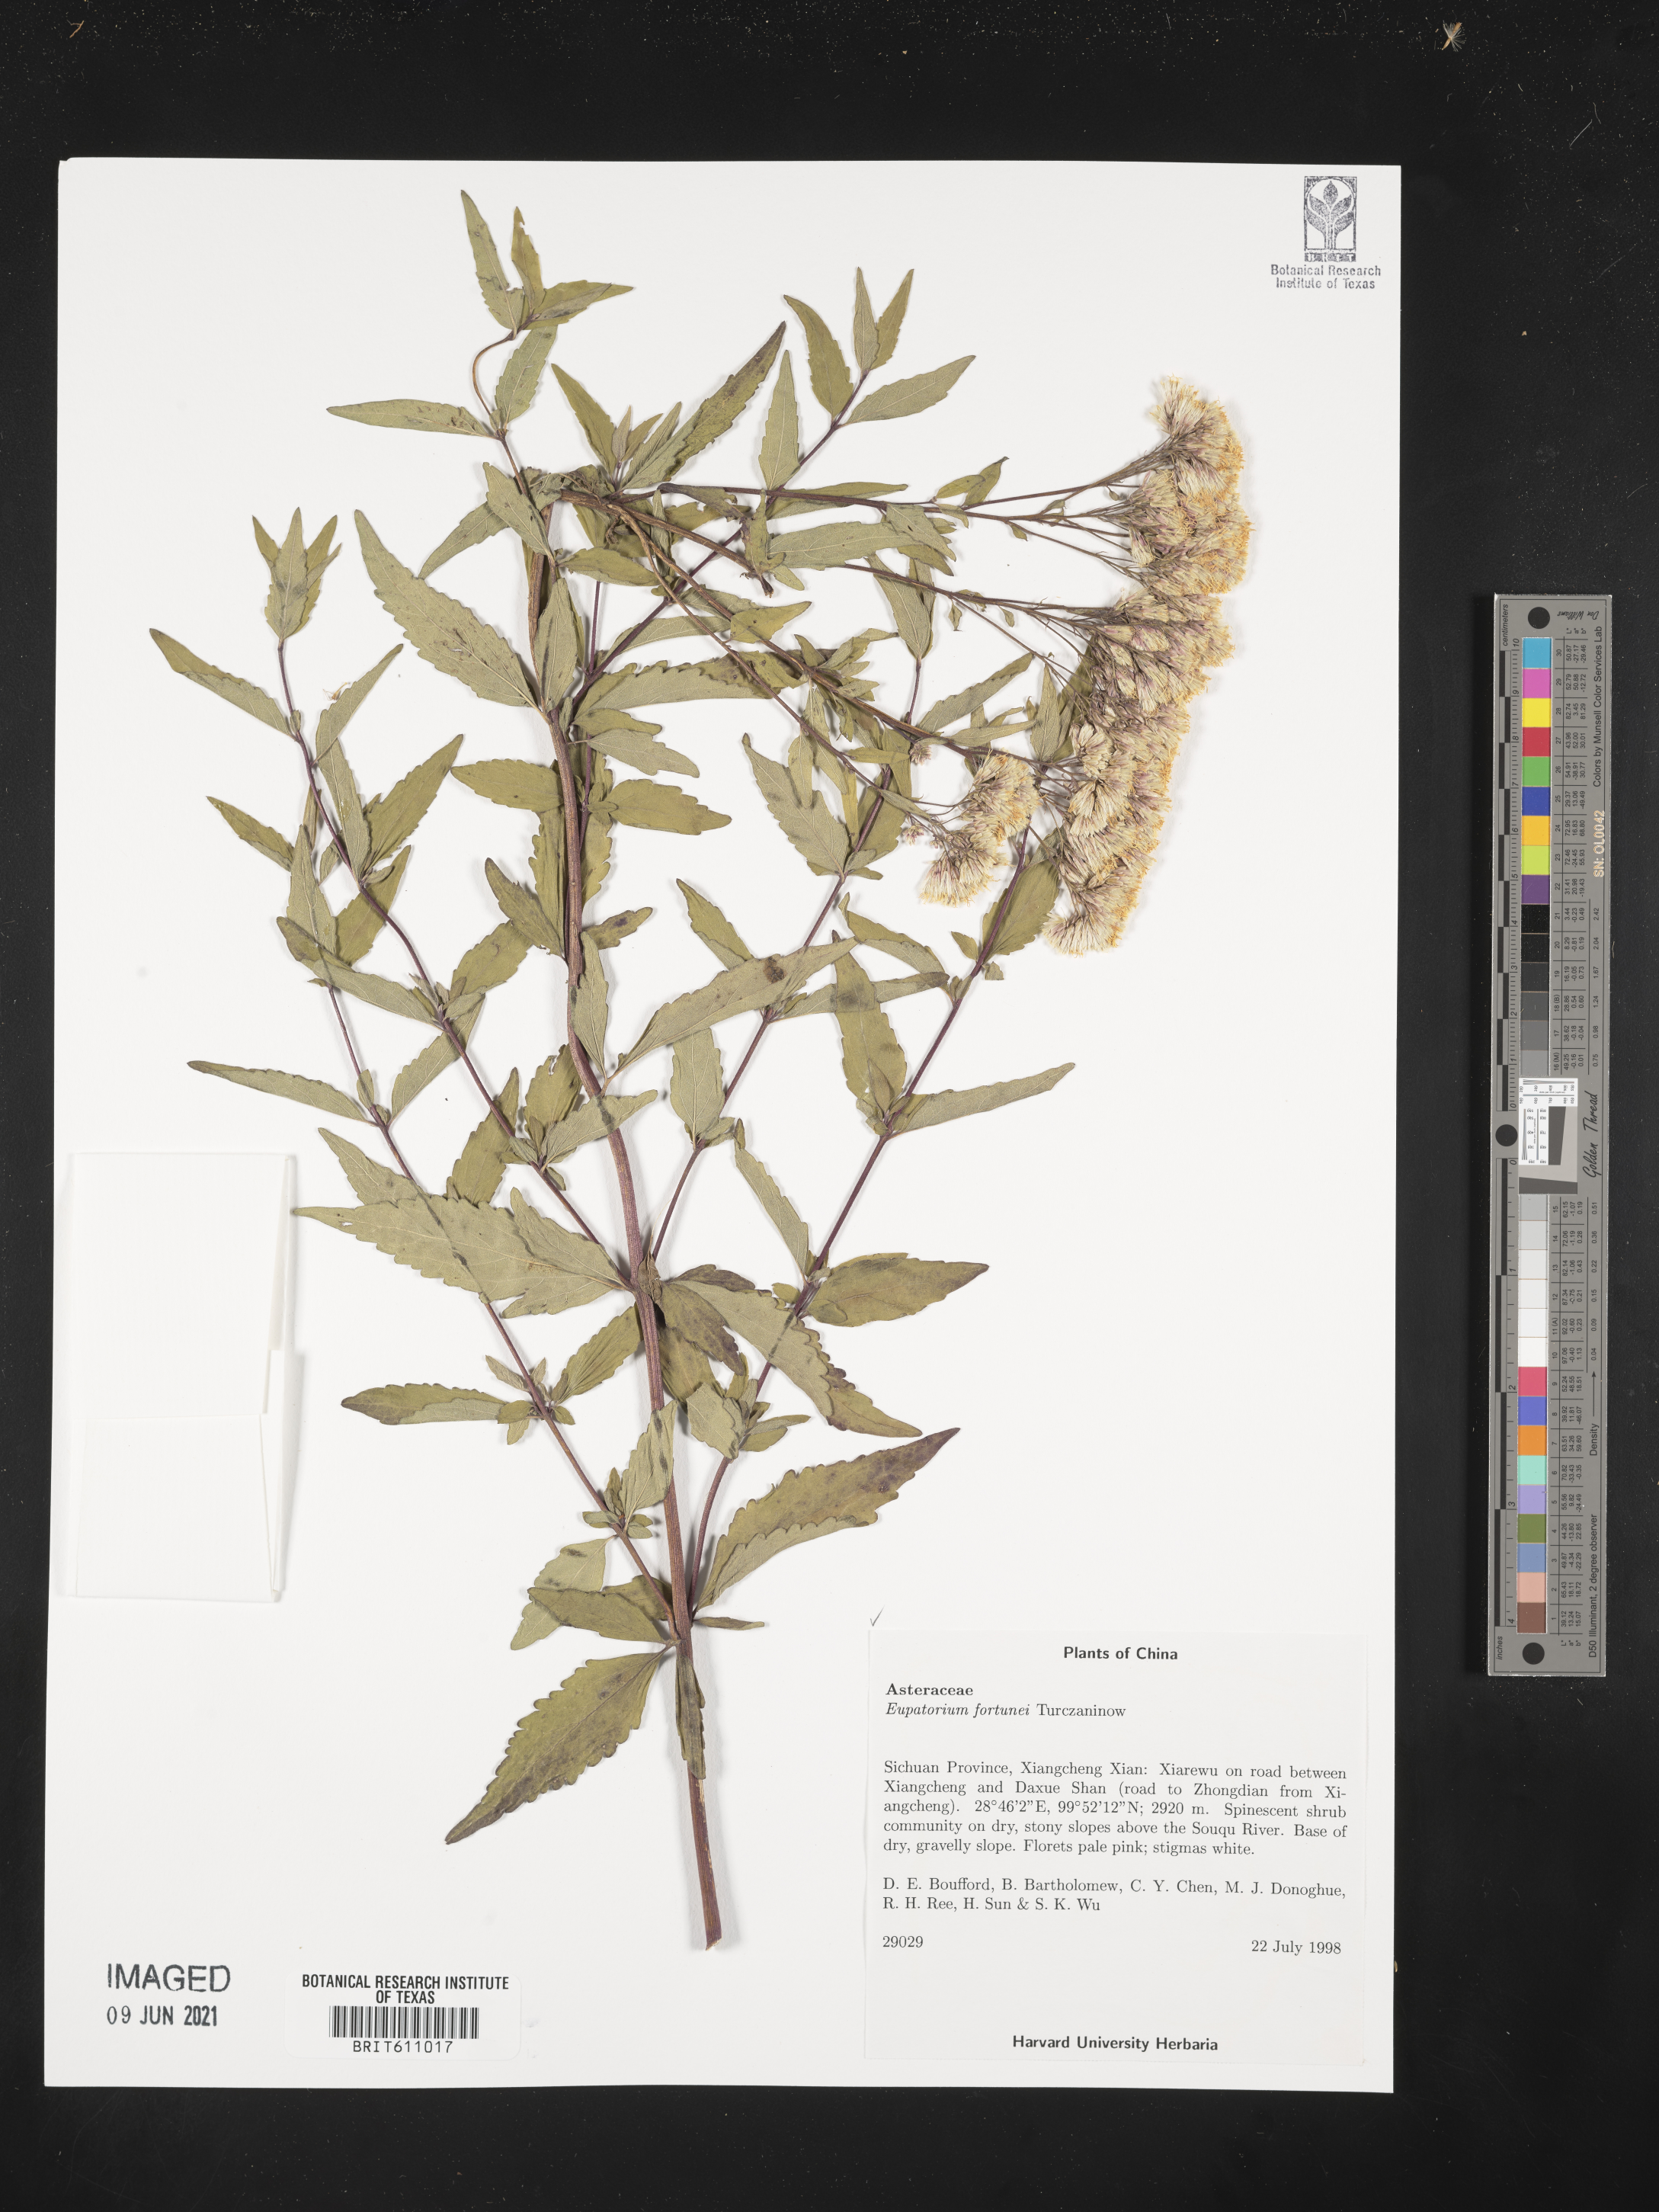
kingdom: Plantae
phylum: Tracheophyta
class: Magnoliopsida
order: Asterales
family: Asteraceae
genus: Eupatorium
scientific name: Eupatorium fortunei
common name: Chinese eupatorium
